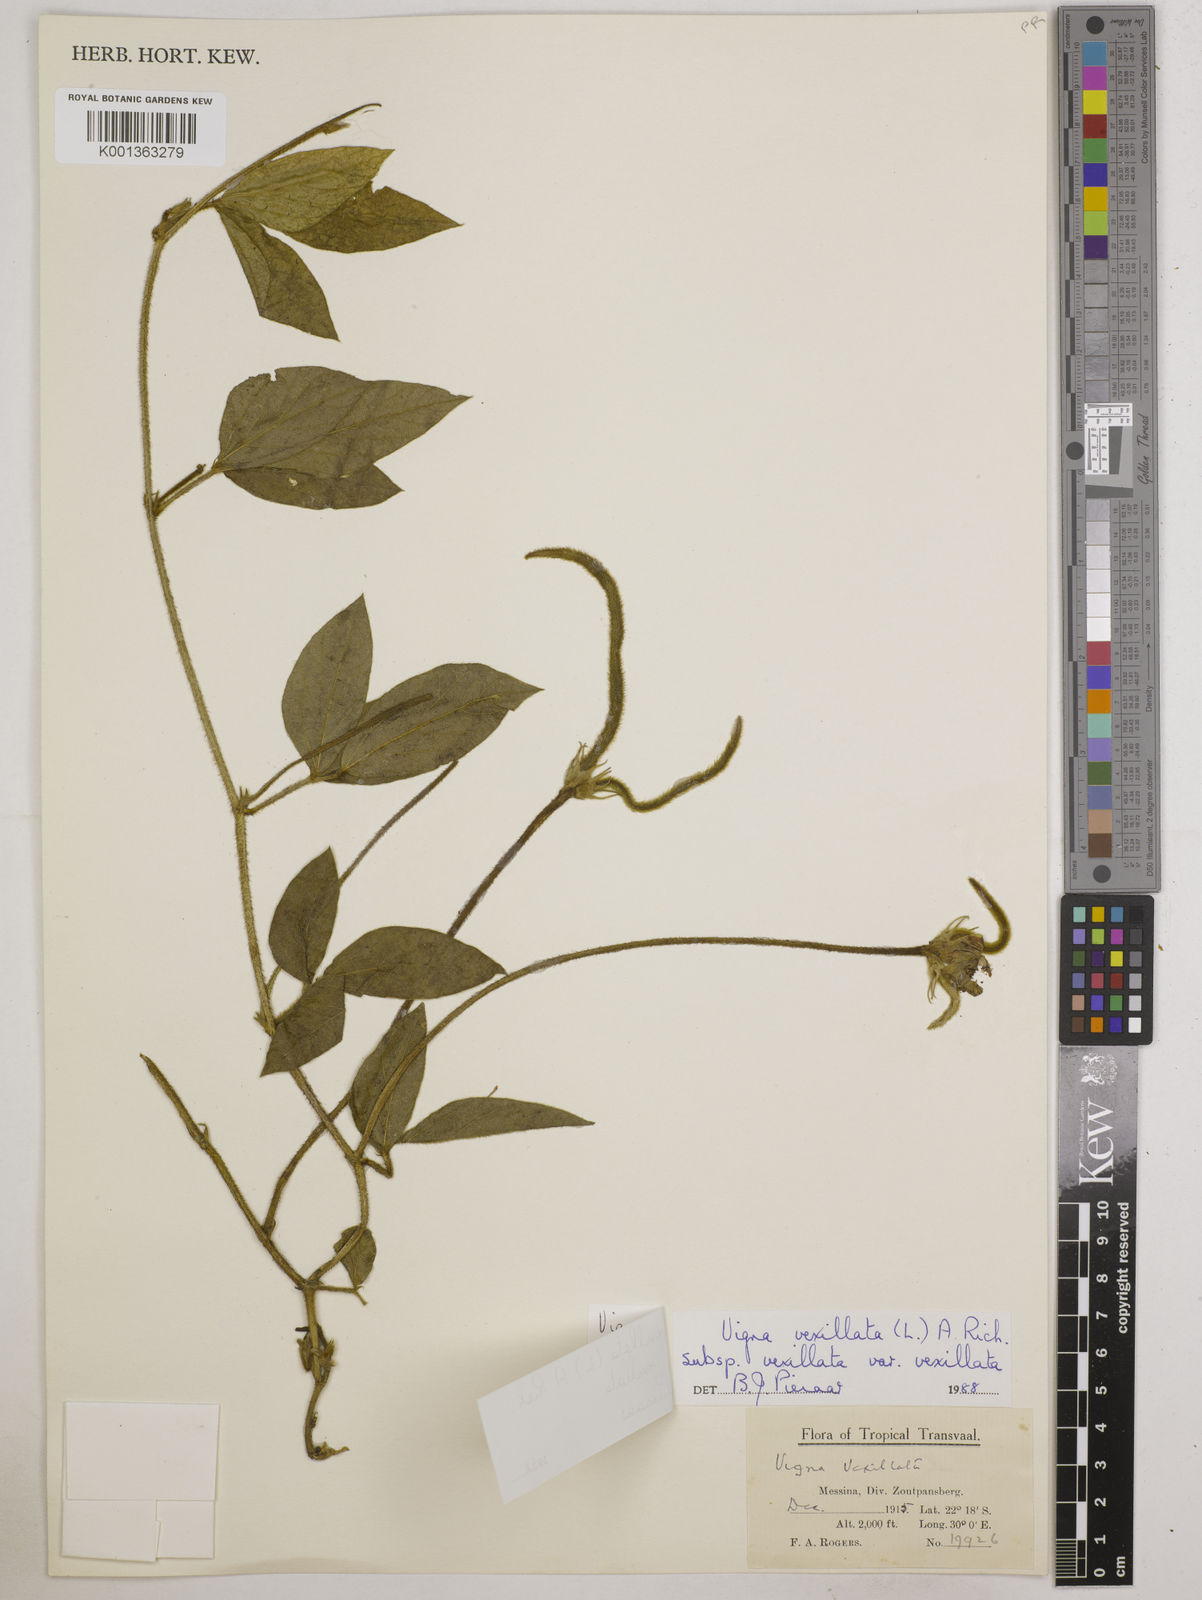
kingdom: Plantae
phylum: Tracheophyta
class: Magnoliopsida
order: Fabales
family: Fabaceae
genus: Vigna
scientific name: Vigna
